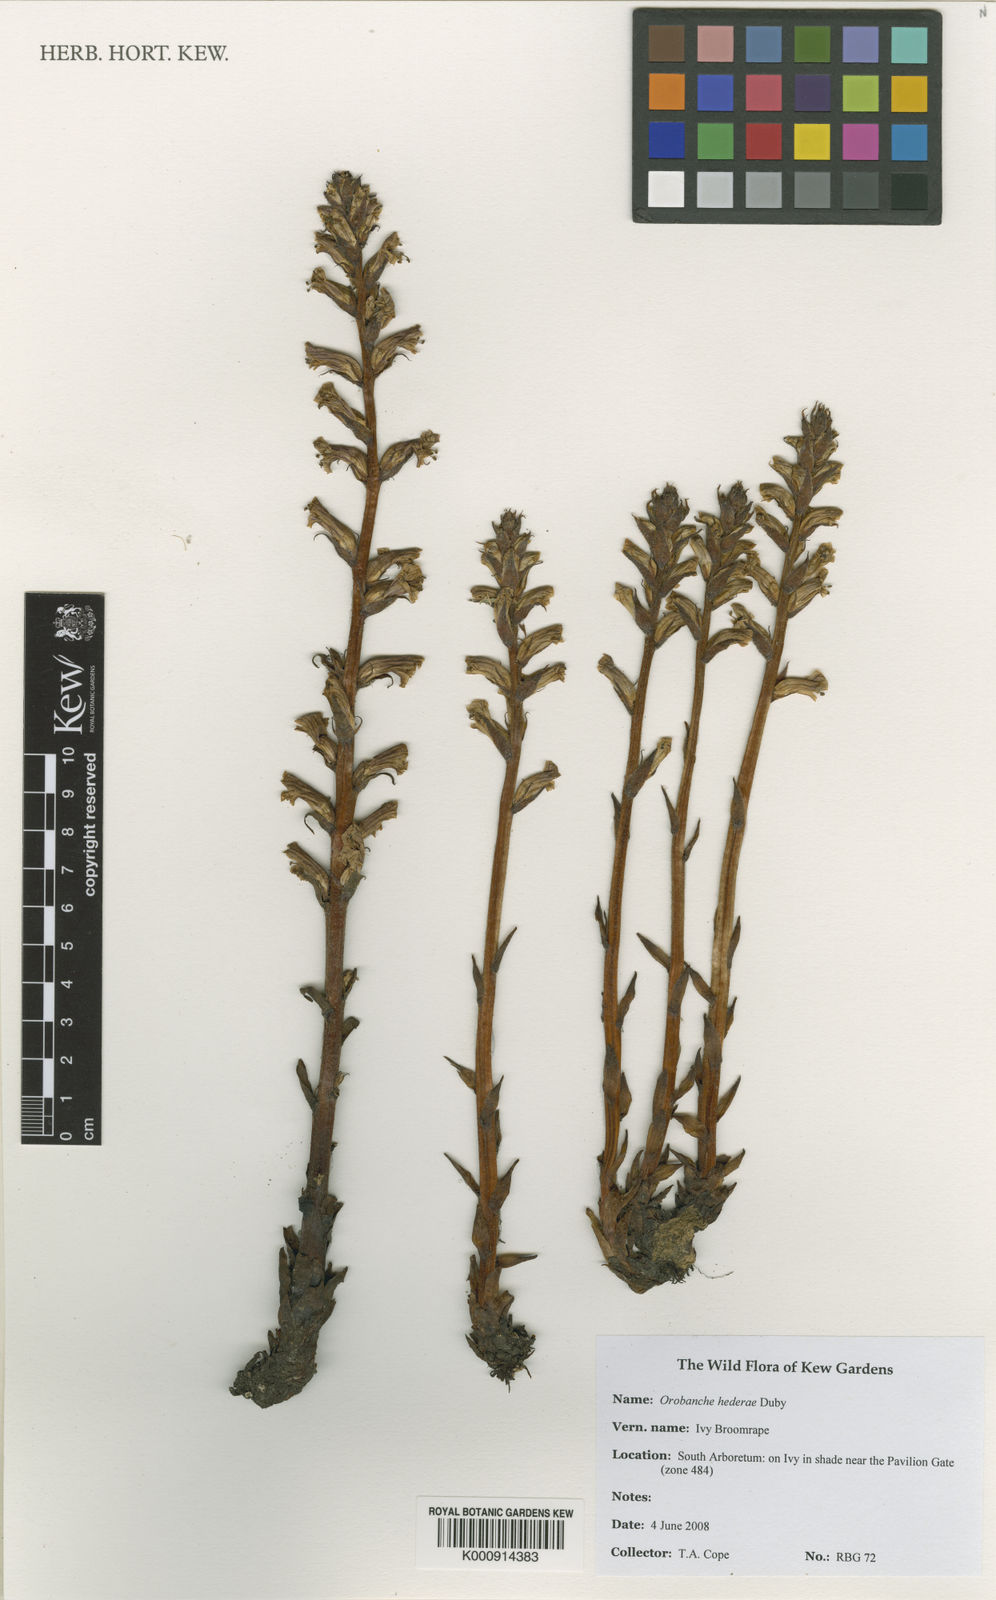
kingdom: Plantae
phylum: Tracheophyta
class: Magnoliopsida
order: Lamiales
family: Orobanchaceae
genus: Orobanche
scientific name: Orobanche hederae
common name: Ivy broomrape
